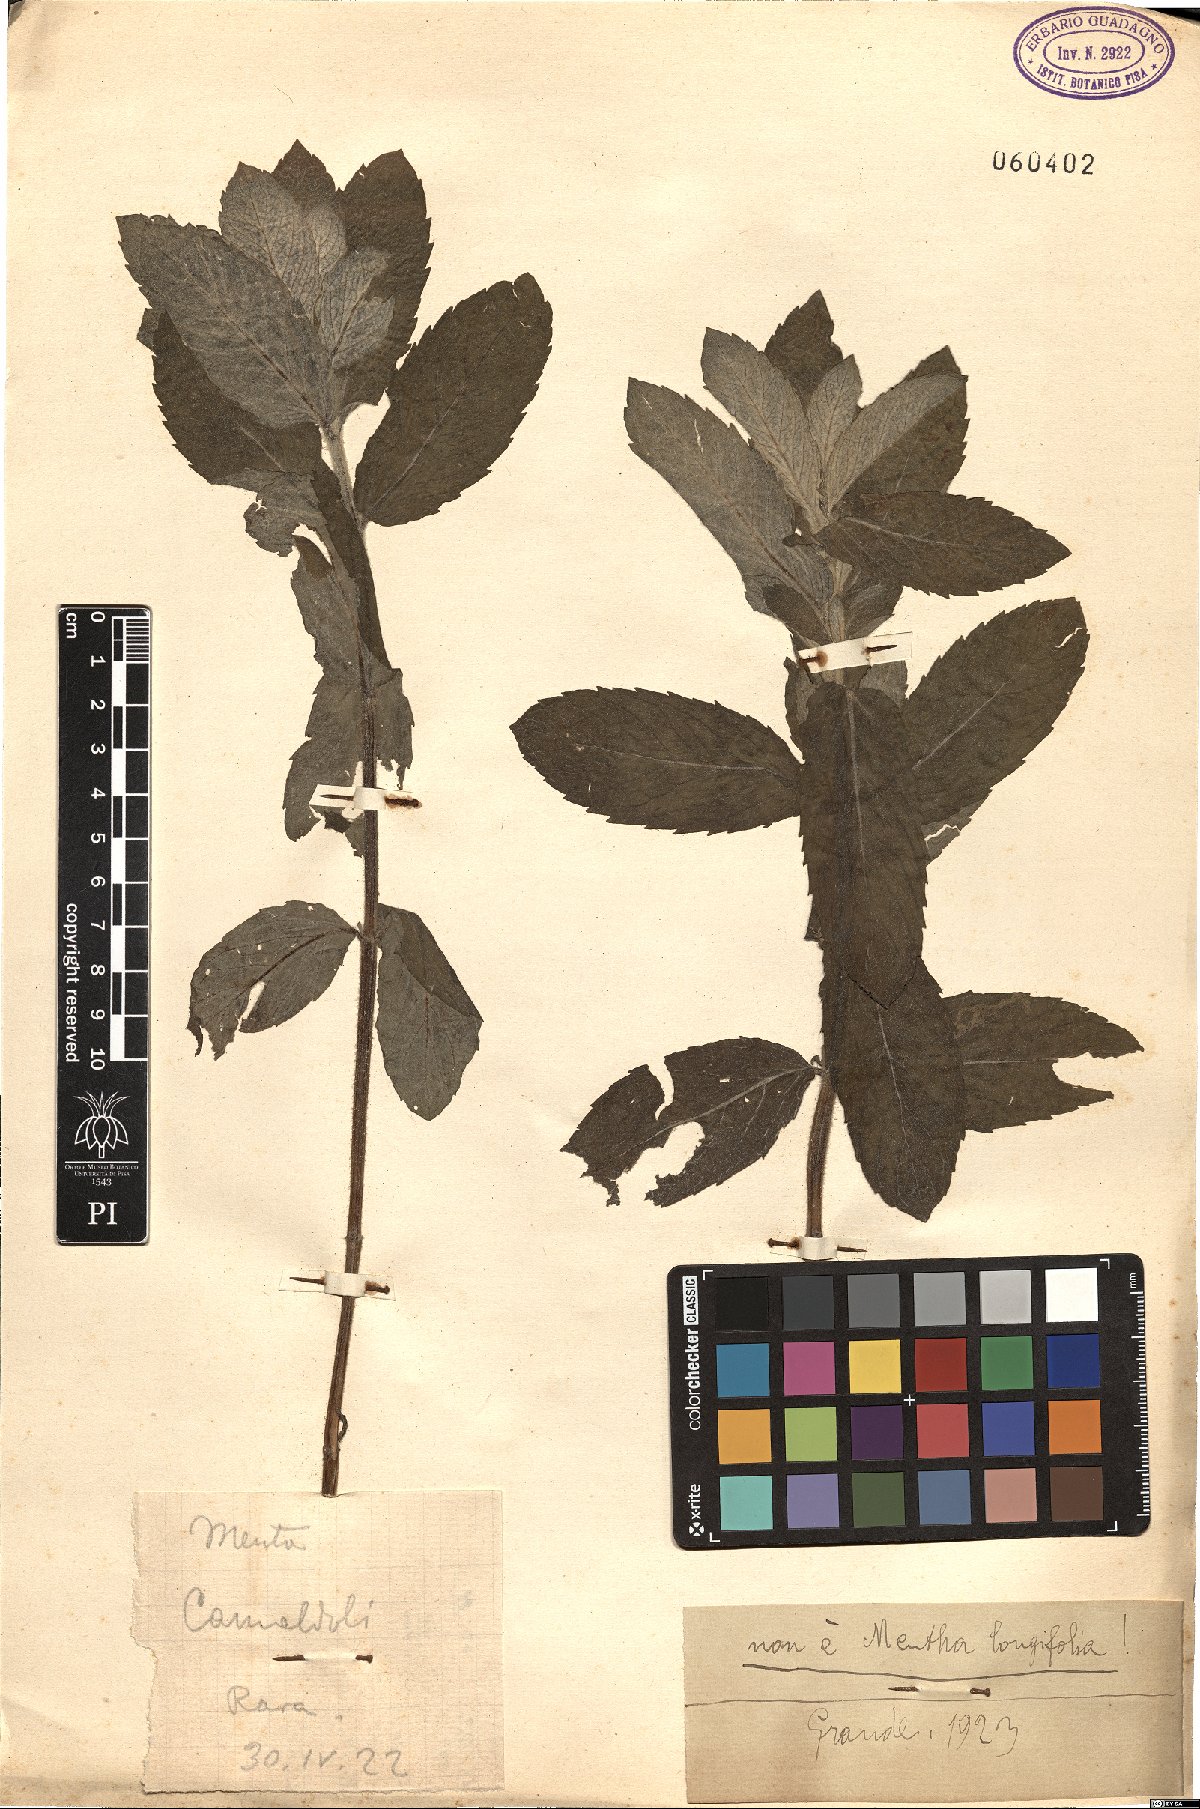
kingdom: Plantae
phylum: Tracheophyta
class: Magnoliopsida
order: Lamiales
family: Lamiaceae
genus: Mentha
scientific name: Mentha
